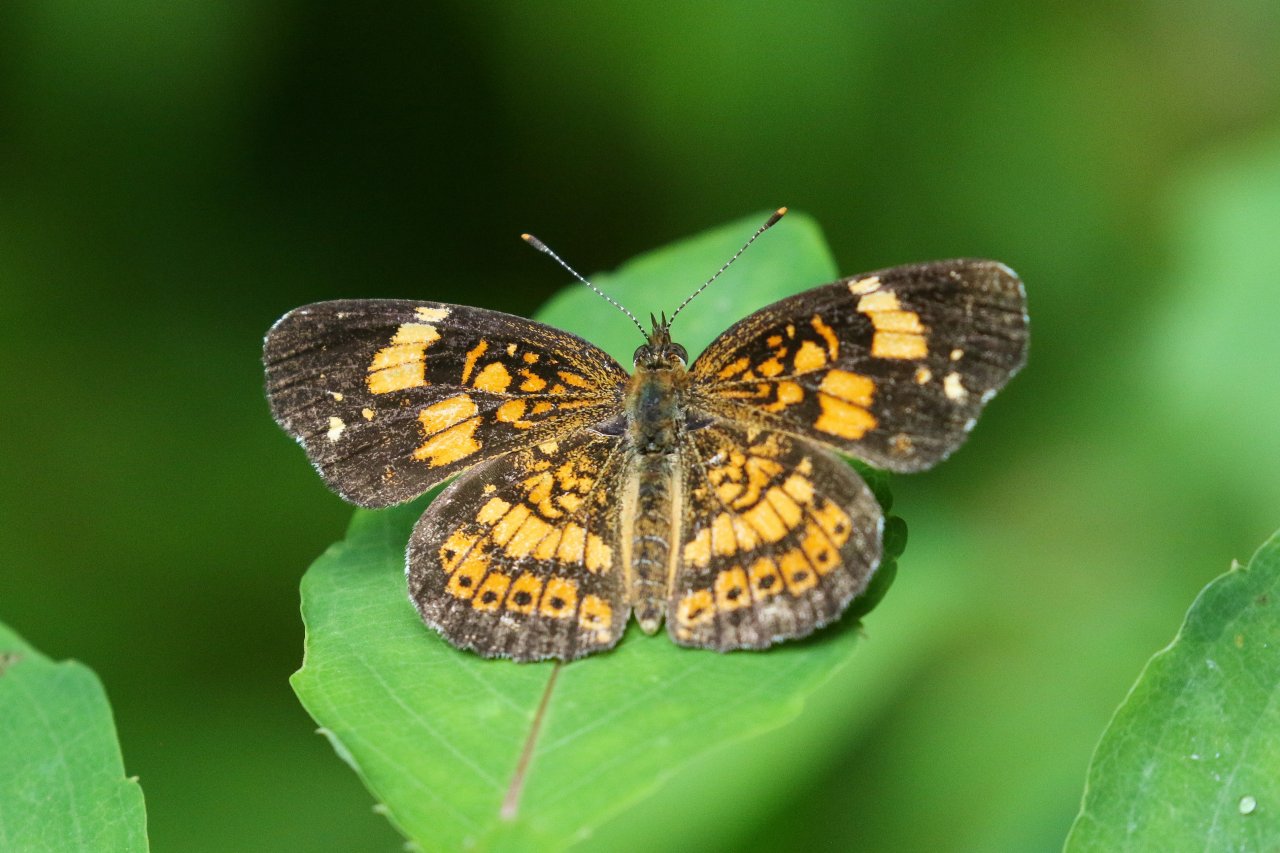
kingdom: Animalia
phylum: Arthropoda
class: Insecta
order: Lepidoptera
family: Nymphalidae
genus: Chlosyne
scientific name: Chlosyne nycteis
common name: Silvery Checkerspot
